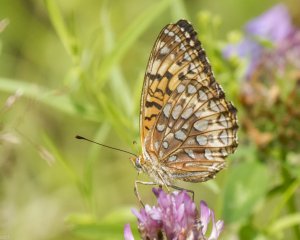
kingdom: Animalia
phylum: Arthropoda
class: Insecta
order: Lepidoptera
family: Nymphalidae
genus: Speyeria
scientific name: Speyeria atlantis
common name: Atlantis Fritillary
